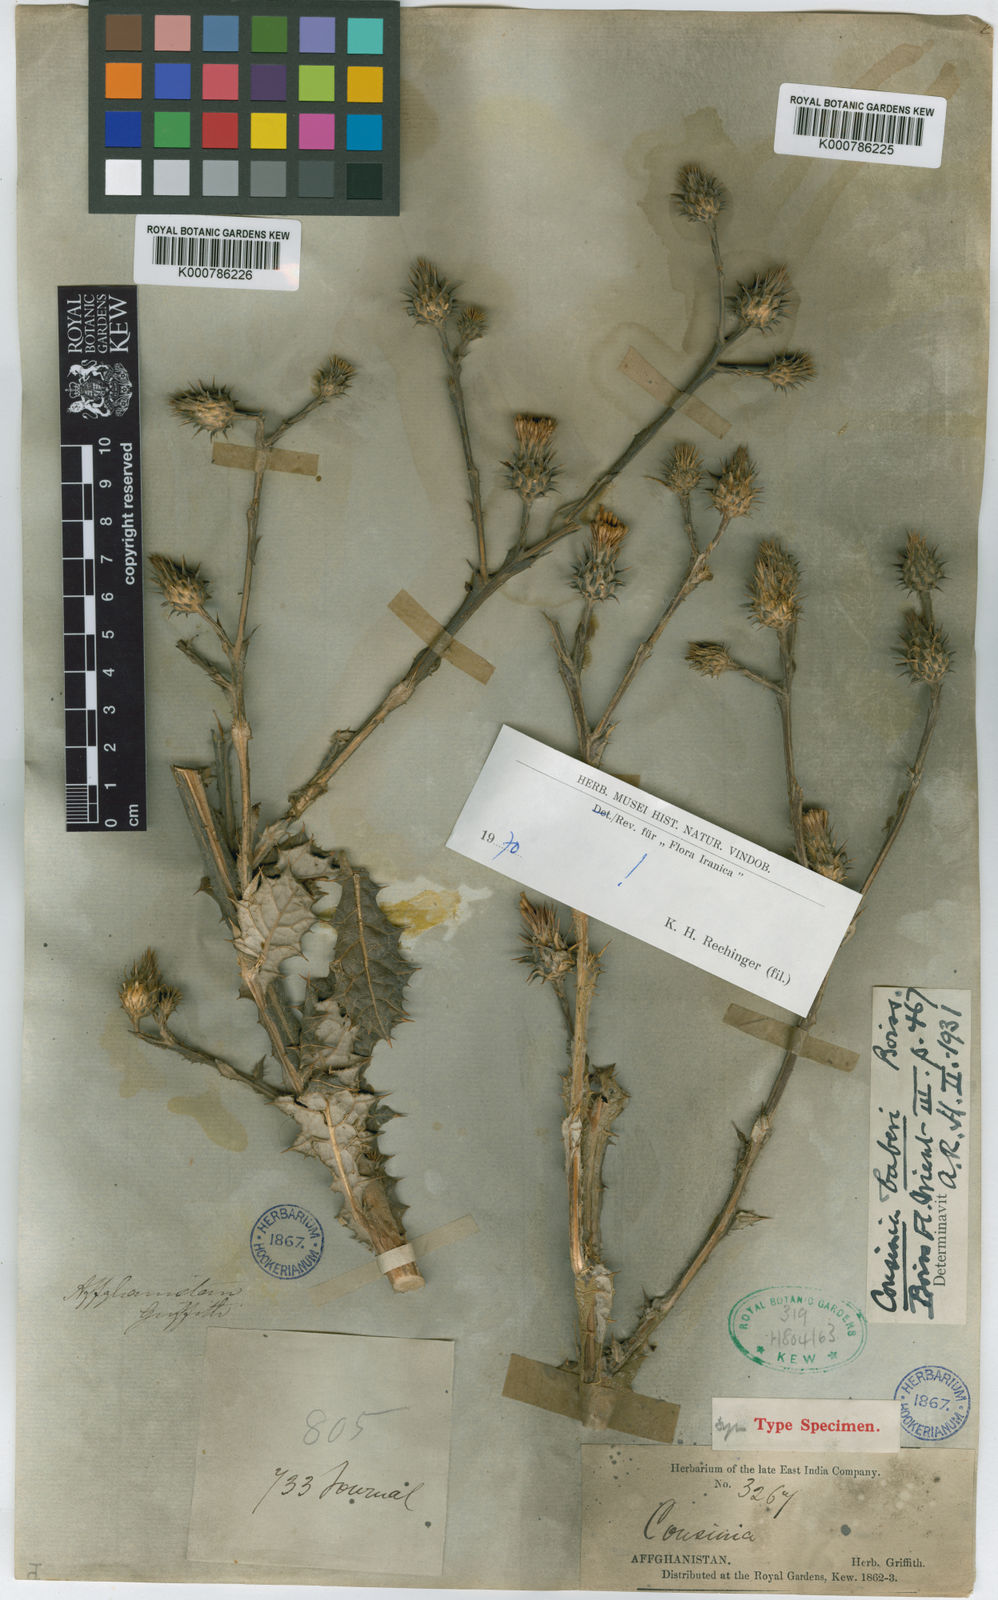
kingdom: Plantae
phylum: Tracheophyta
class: Magnoliopsida
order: Asterales
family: Asteraceae
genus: Cousinia
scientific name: Cousinia baberi
